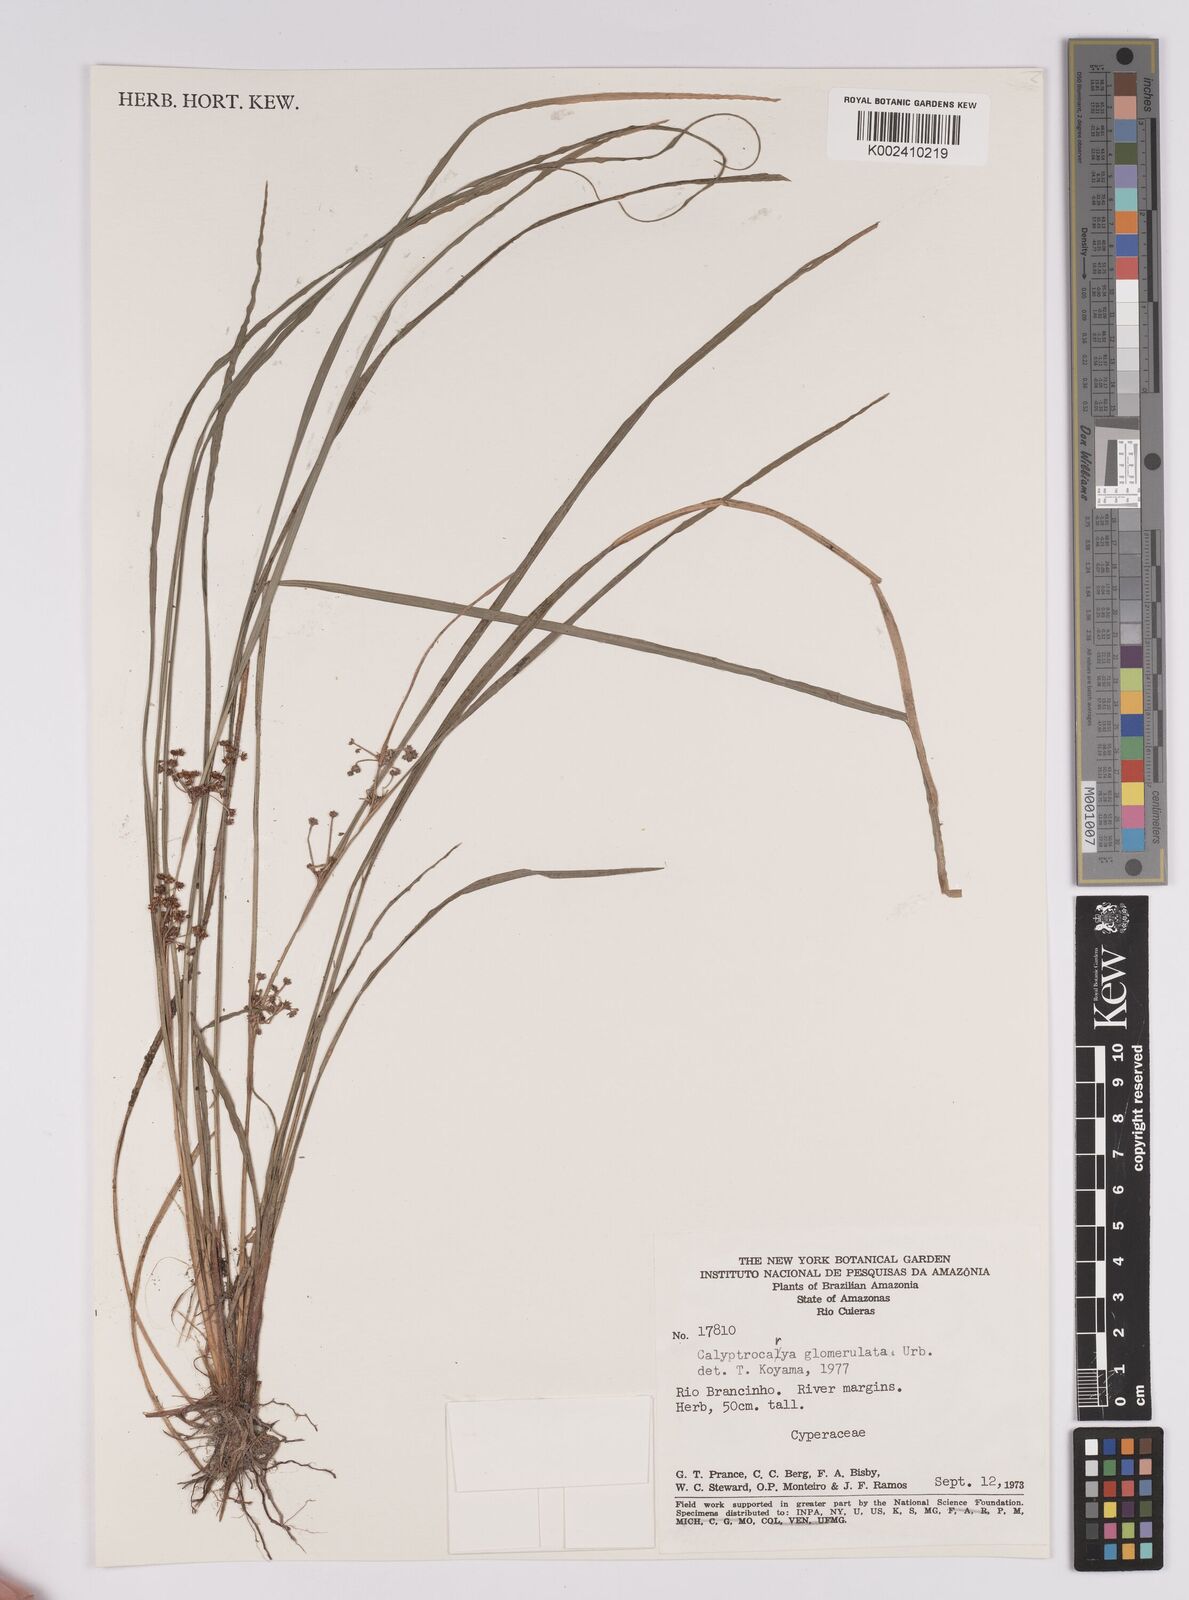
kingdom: Plantae
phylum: Tracheophyta
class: Liliopsida
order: Poales
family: Cyperaceae
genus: Calyptrocarya
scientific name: Calyptrocarya glomerulata
